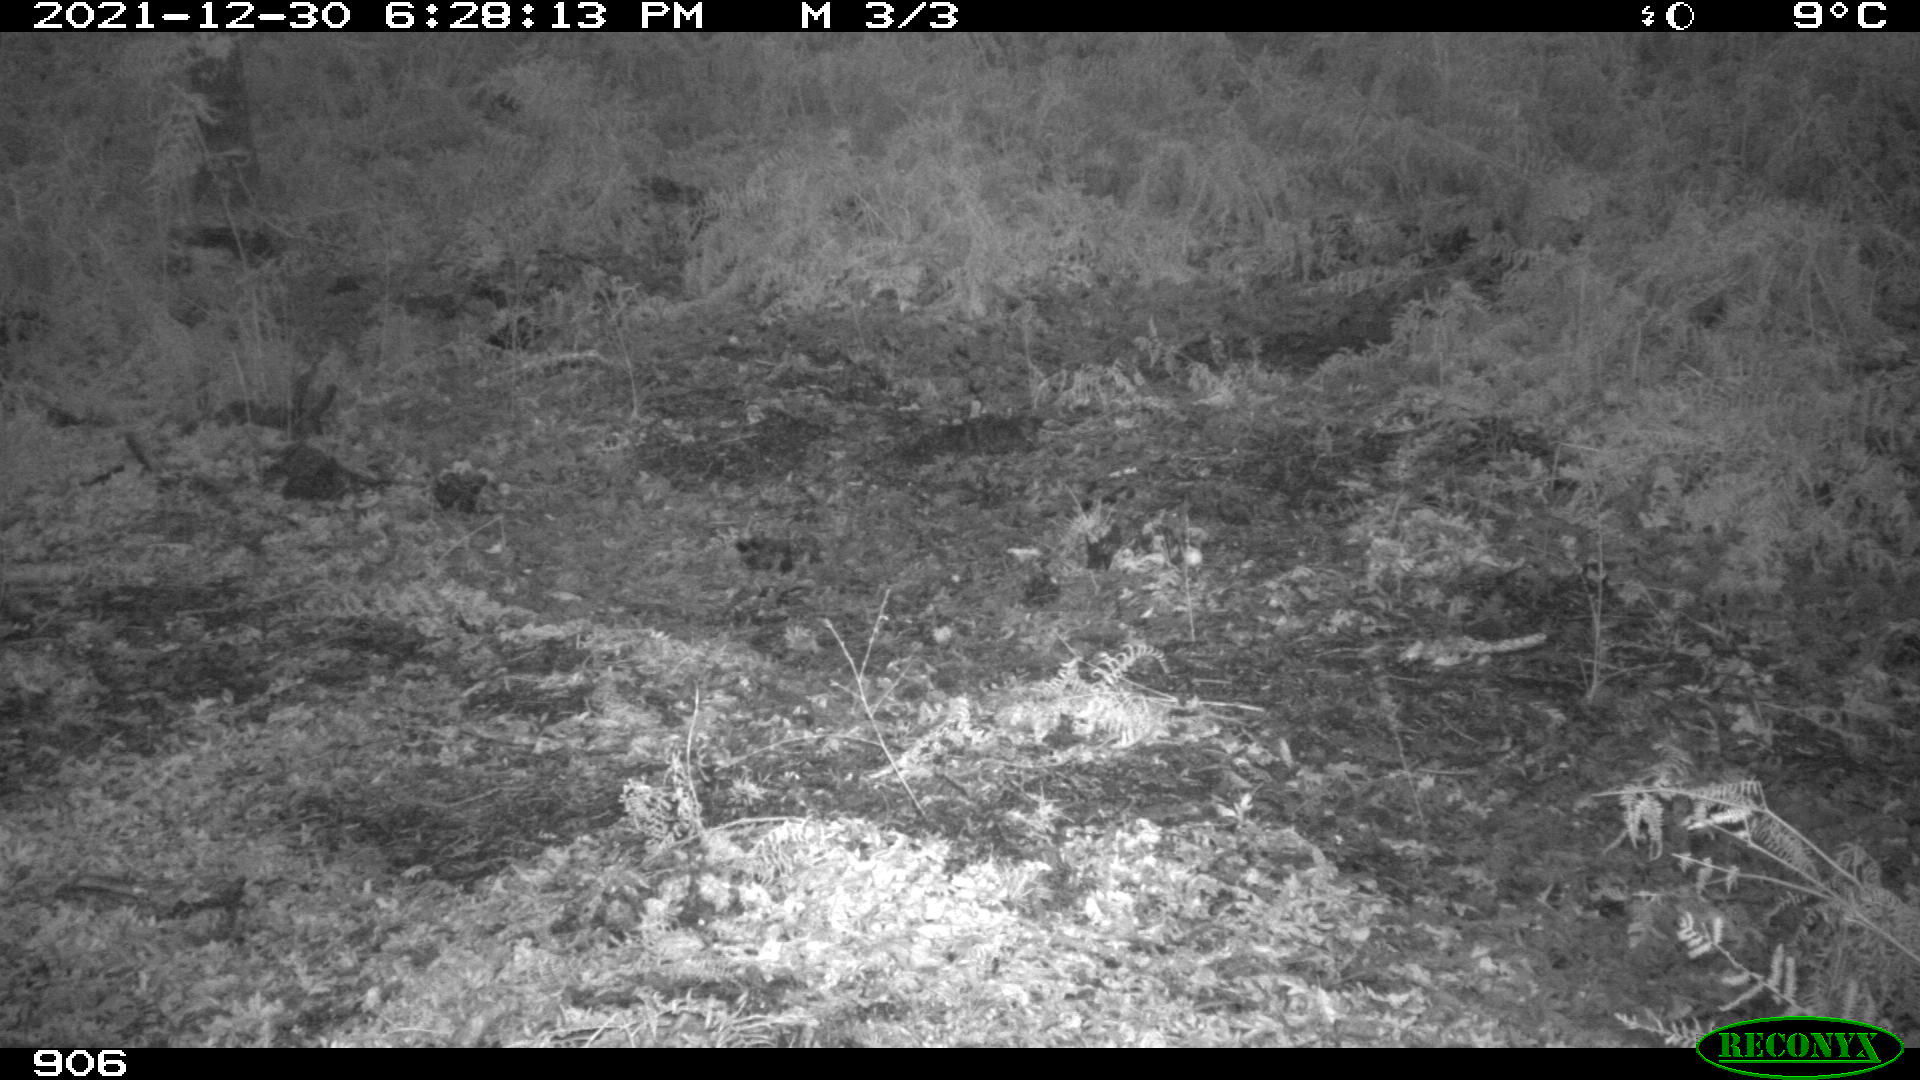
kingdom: Animalia
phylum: Chordata
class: Mammalia
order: Carnivora
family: Canidae
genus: Vulpes
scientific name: Vulpes vulpes
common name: Red fox
